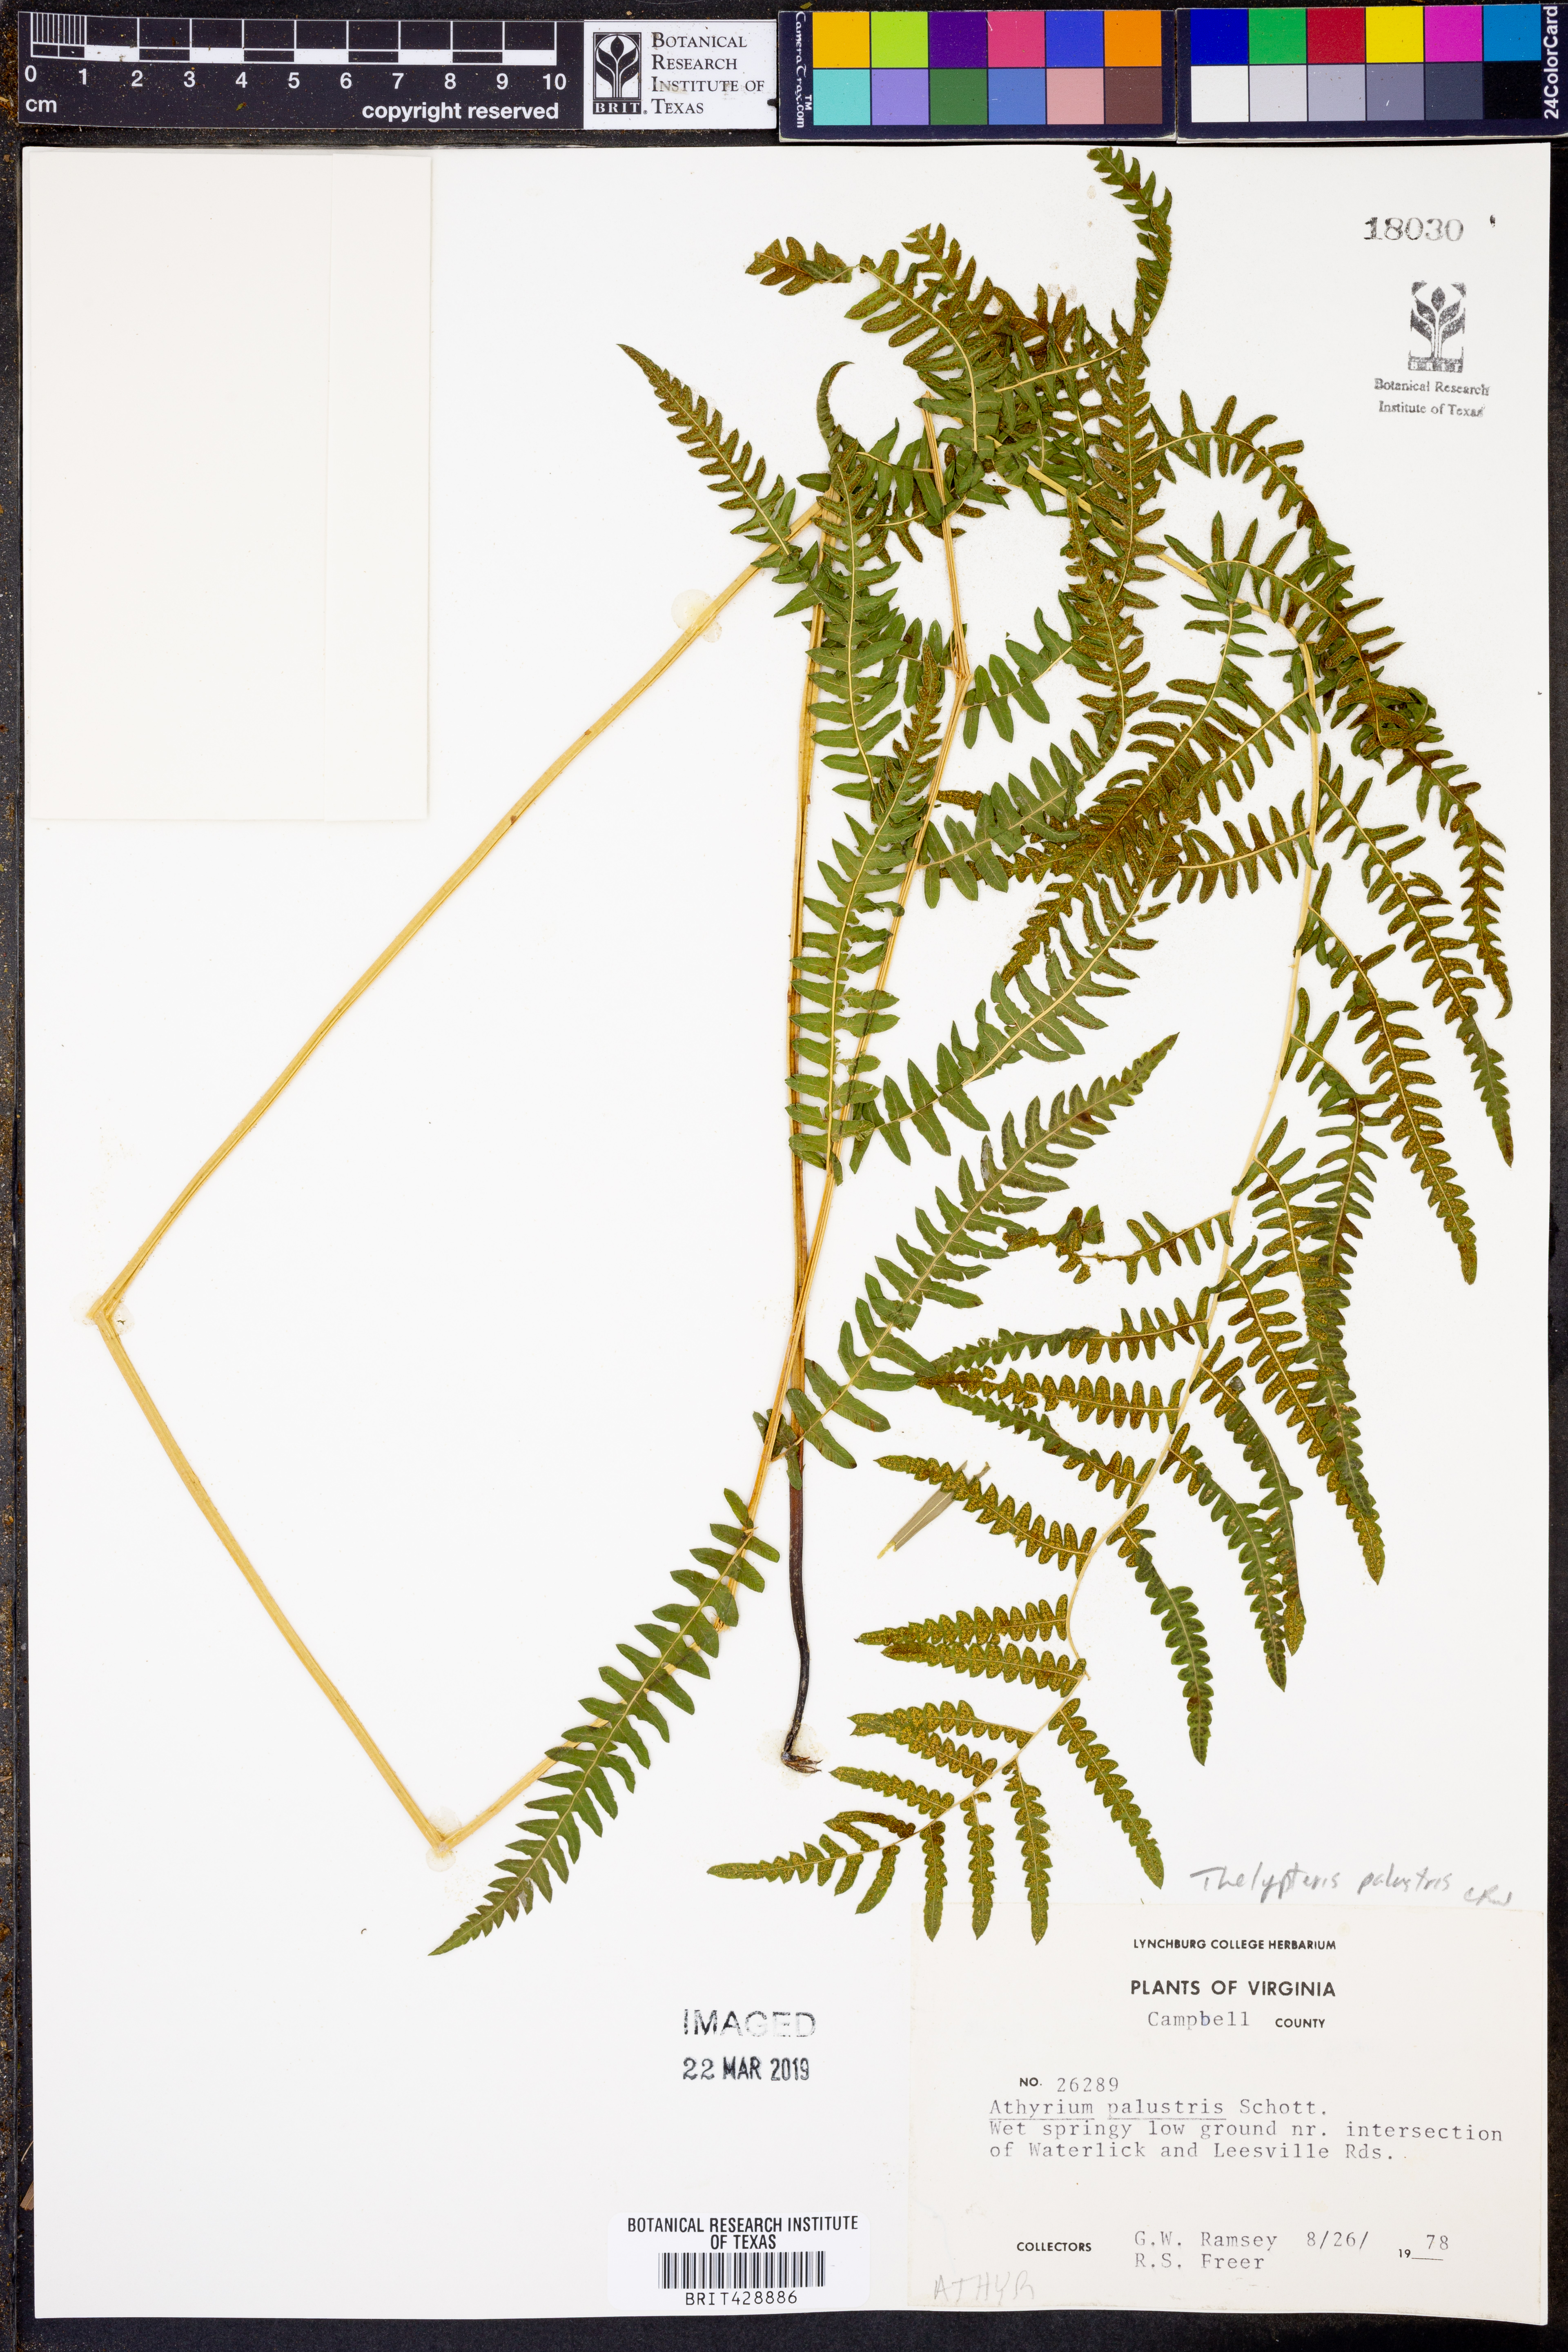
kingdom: Plantae
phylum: Tracheophyta
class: Polypodiopsida
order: Polypodiales
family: Thelypteridaceae
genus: Thelypteris
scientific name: Thelypteris palustris
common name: Marsh fern
